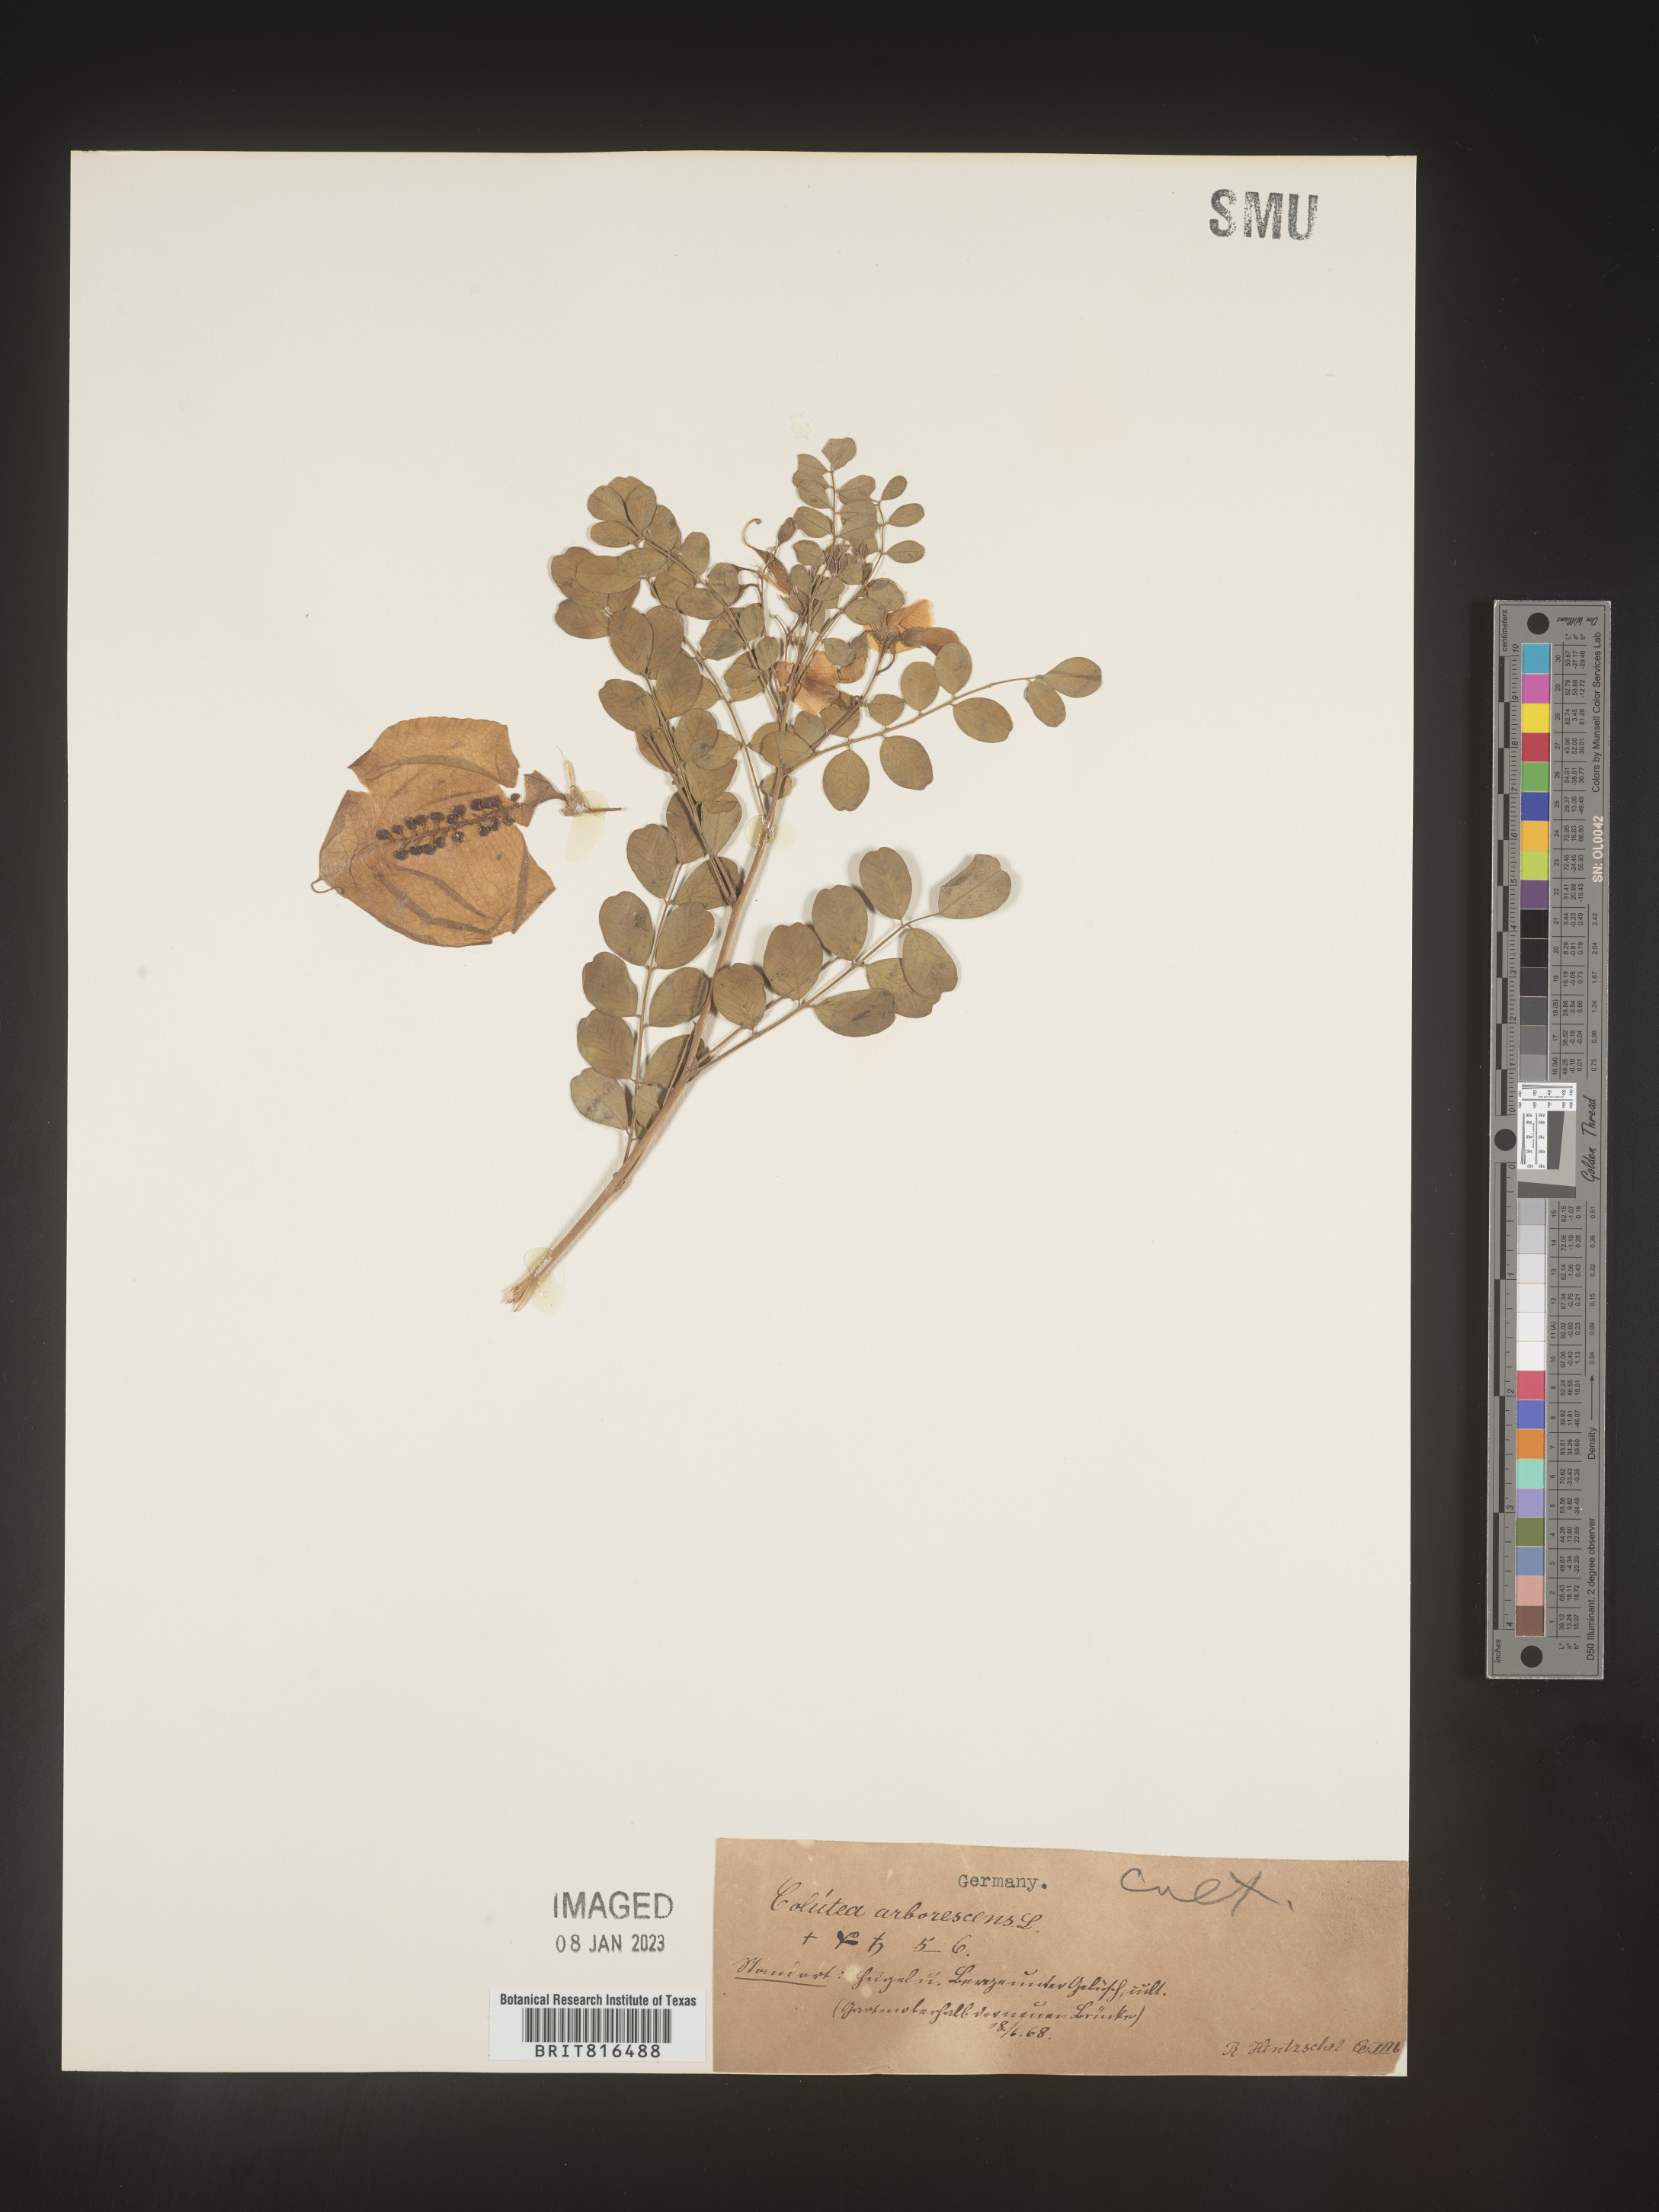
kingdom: Plantae
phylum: Tracheophyta
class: Magnoliopsida
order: Fabales
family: Fabaceae
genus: Colutea
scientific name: Colutea
